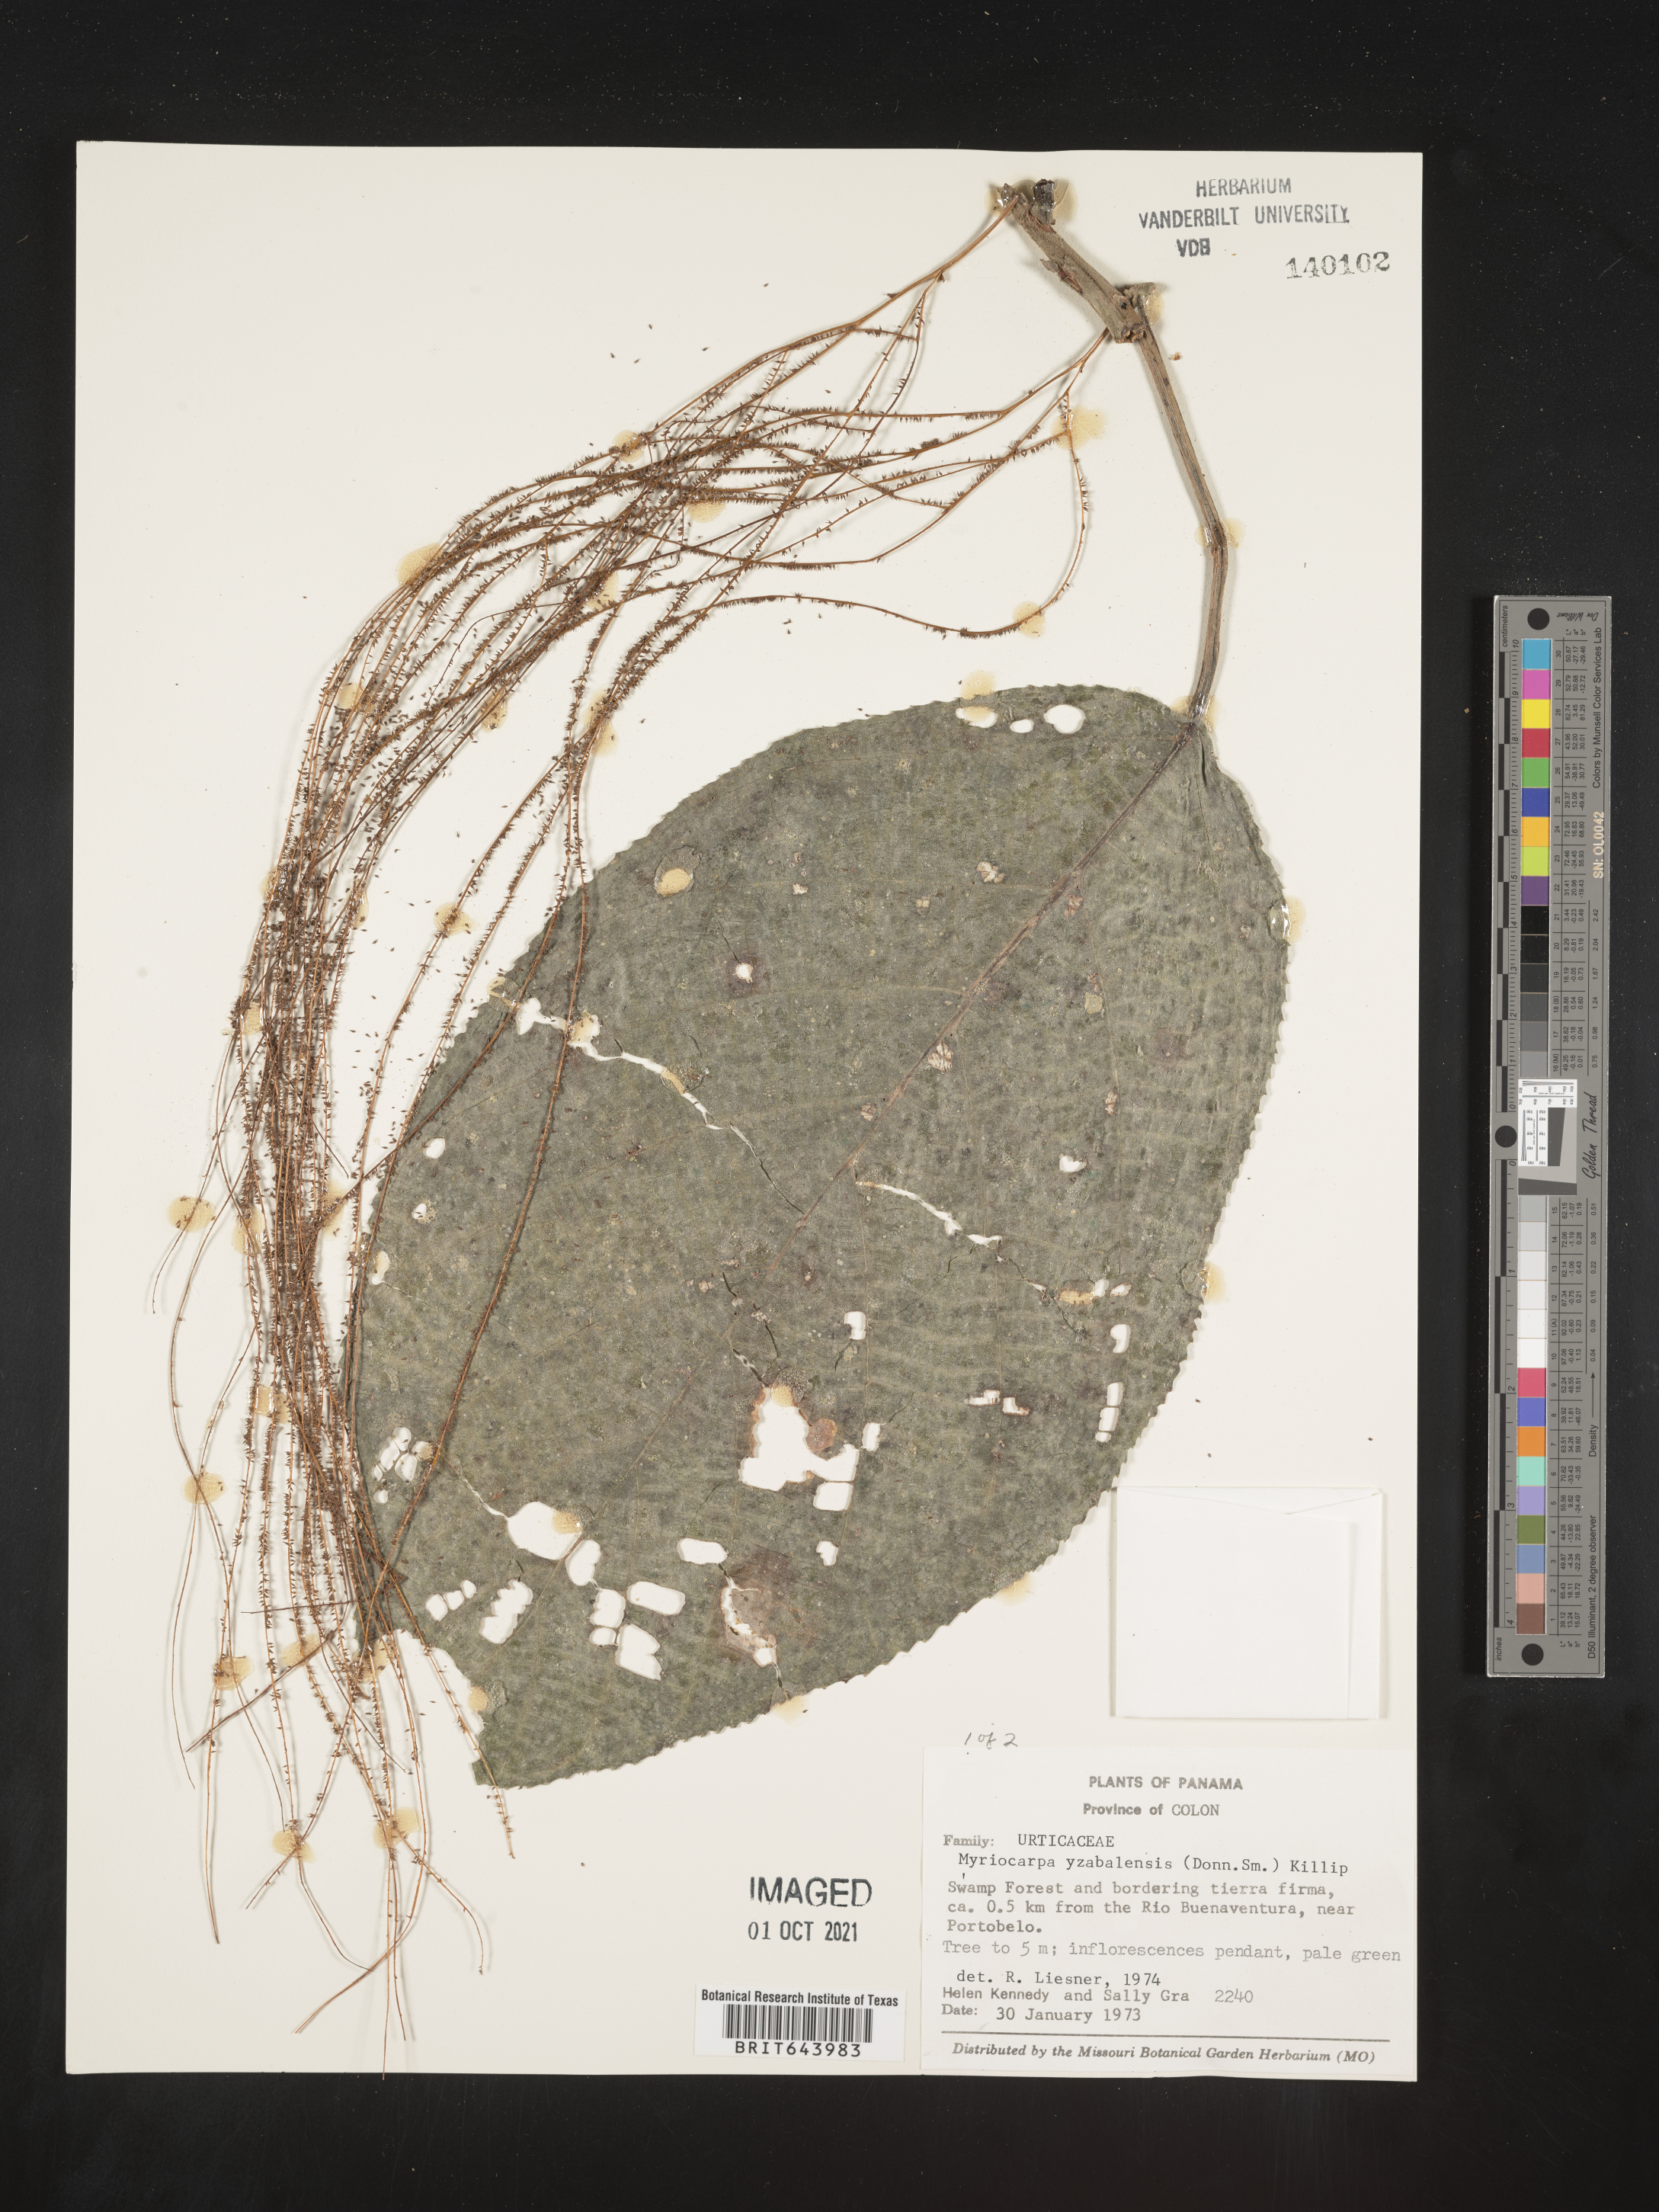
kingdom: Plantae
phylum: Tracheophyta
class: Magnoliopsida
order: Rosales
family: Urticaceae
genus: Myriocarpa
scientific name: Myriocarpa
